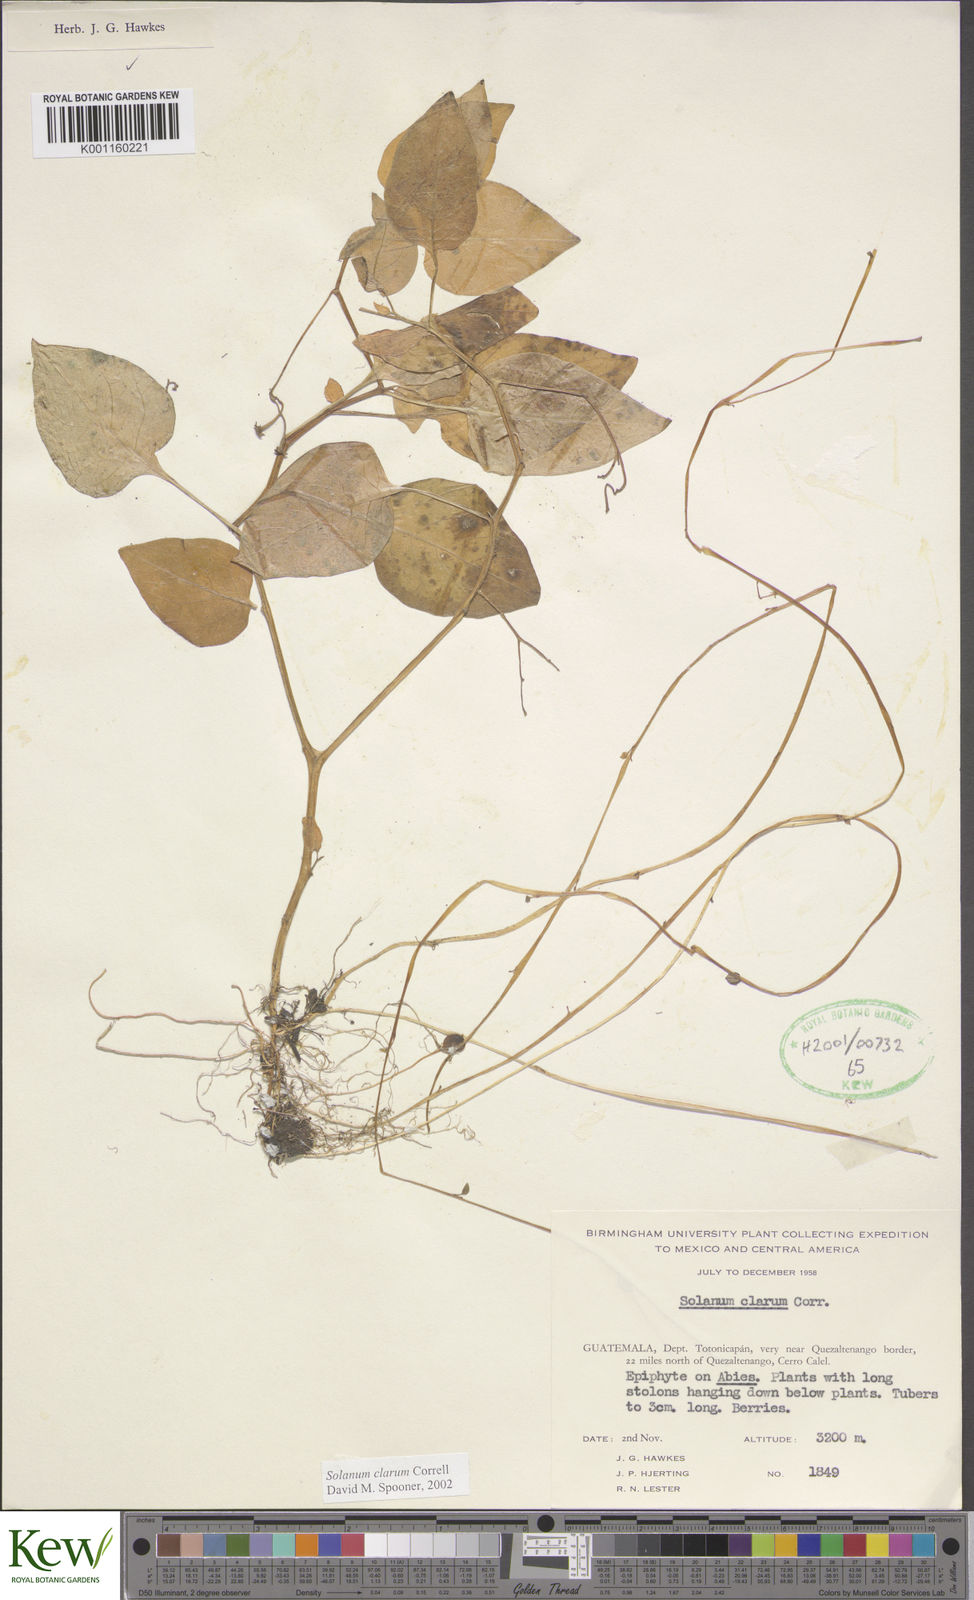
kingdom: Plantae
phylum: Tracheophyta
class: Magnoliopsida
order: Solanales
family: Solanaceae
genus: Solanum
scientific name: Solanum clarum
